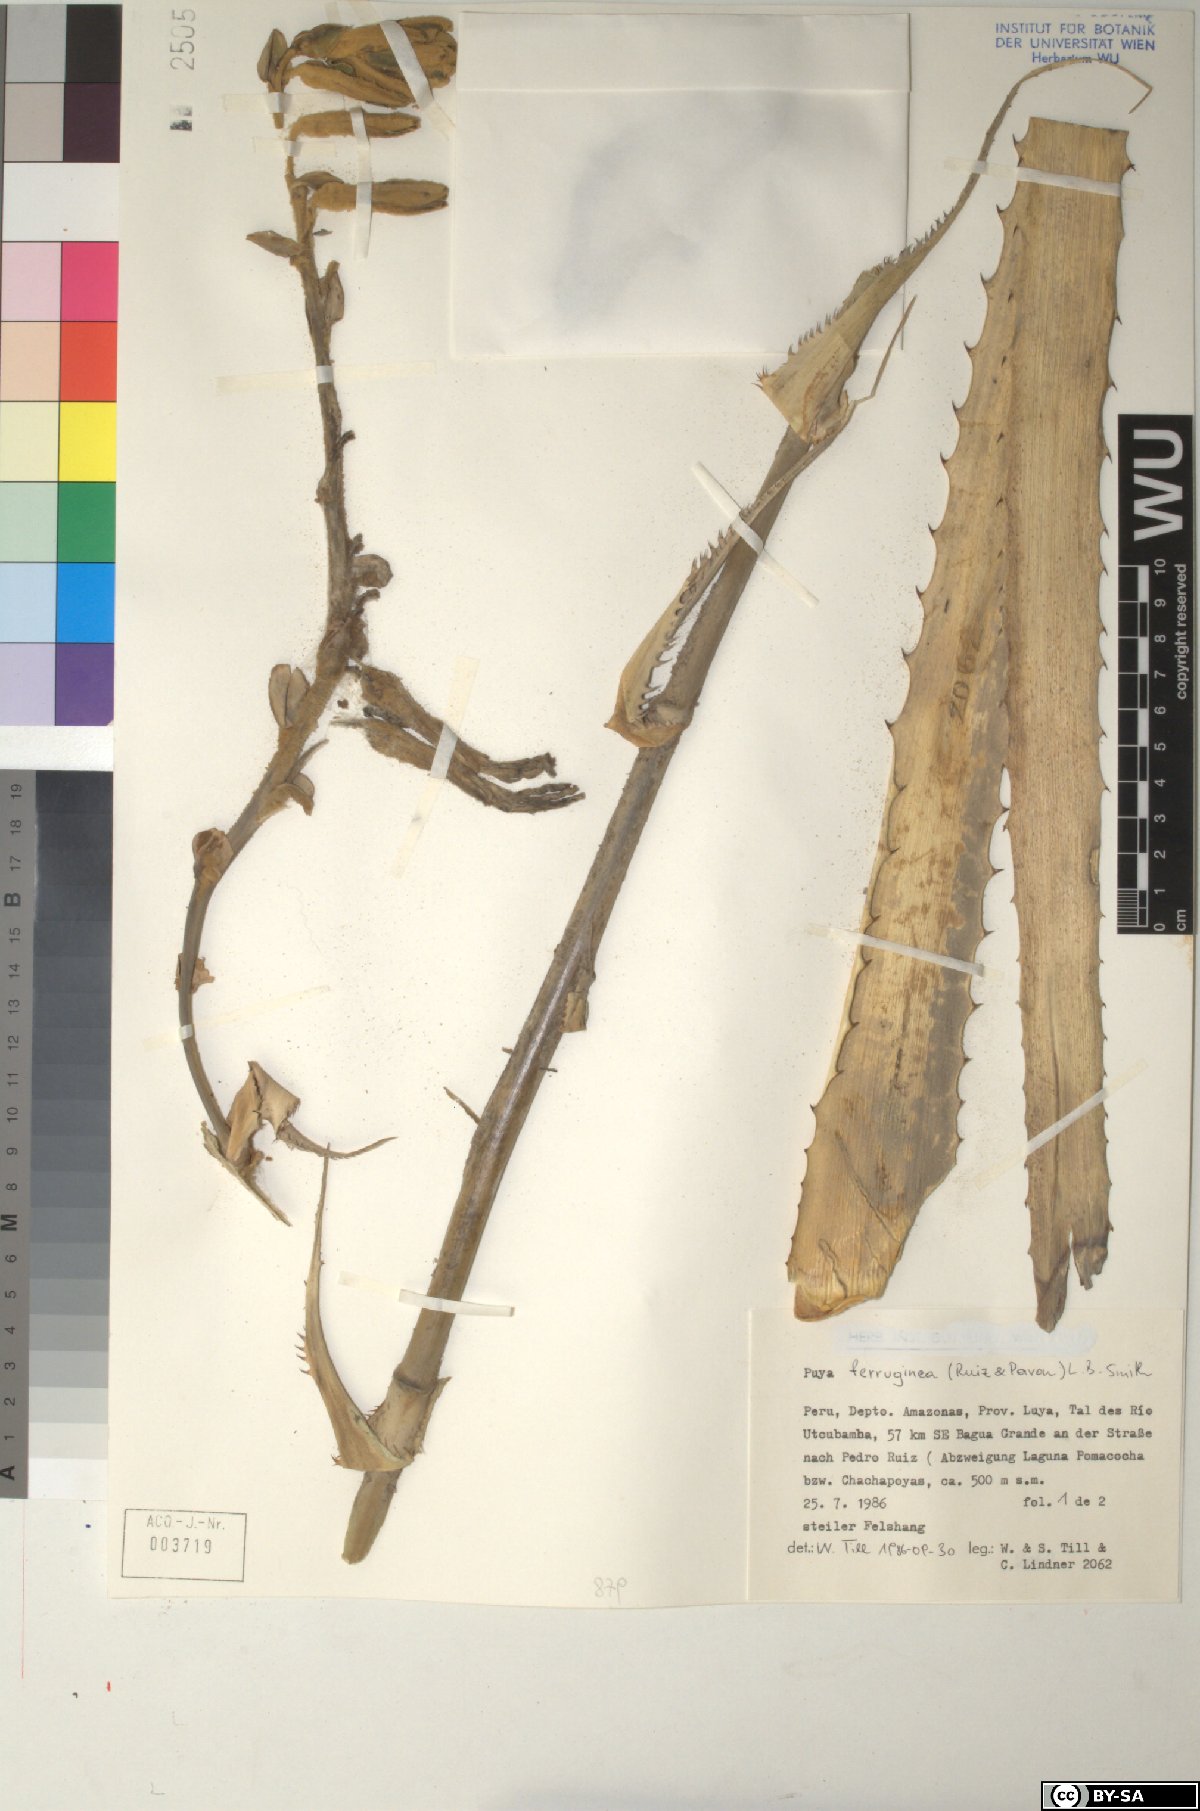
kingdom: Plantae
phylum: Tracheophyta
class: Liliopsida
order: Poales
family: Bromeliaceae
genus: Puya
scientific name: Puya ferruginea
